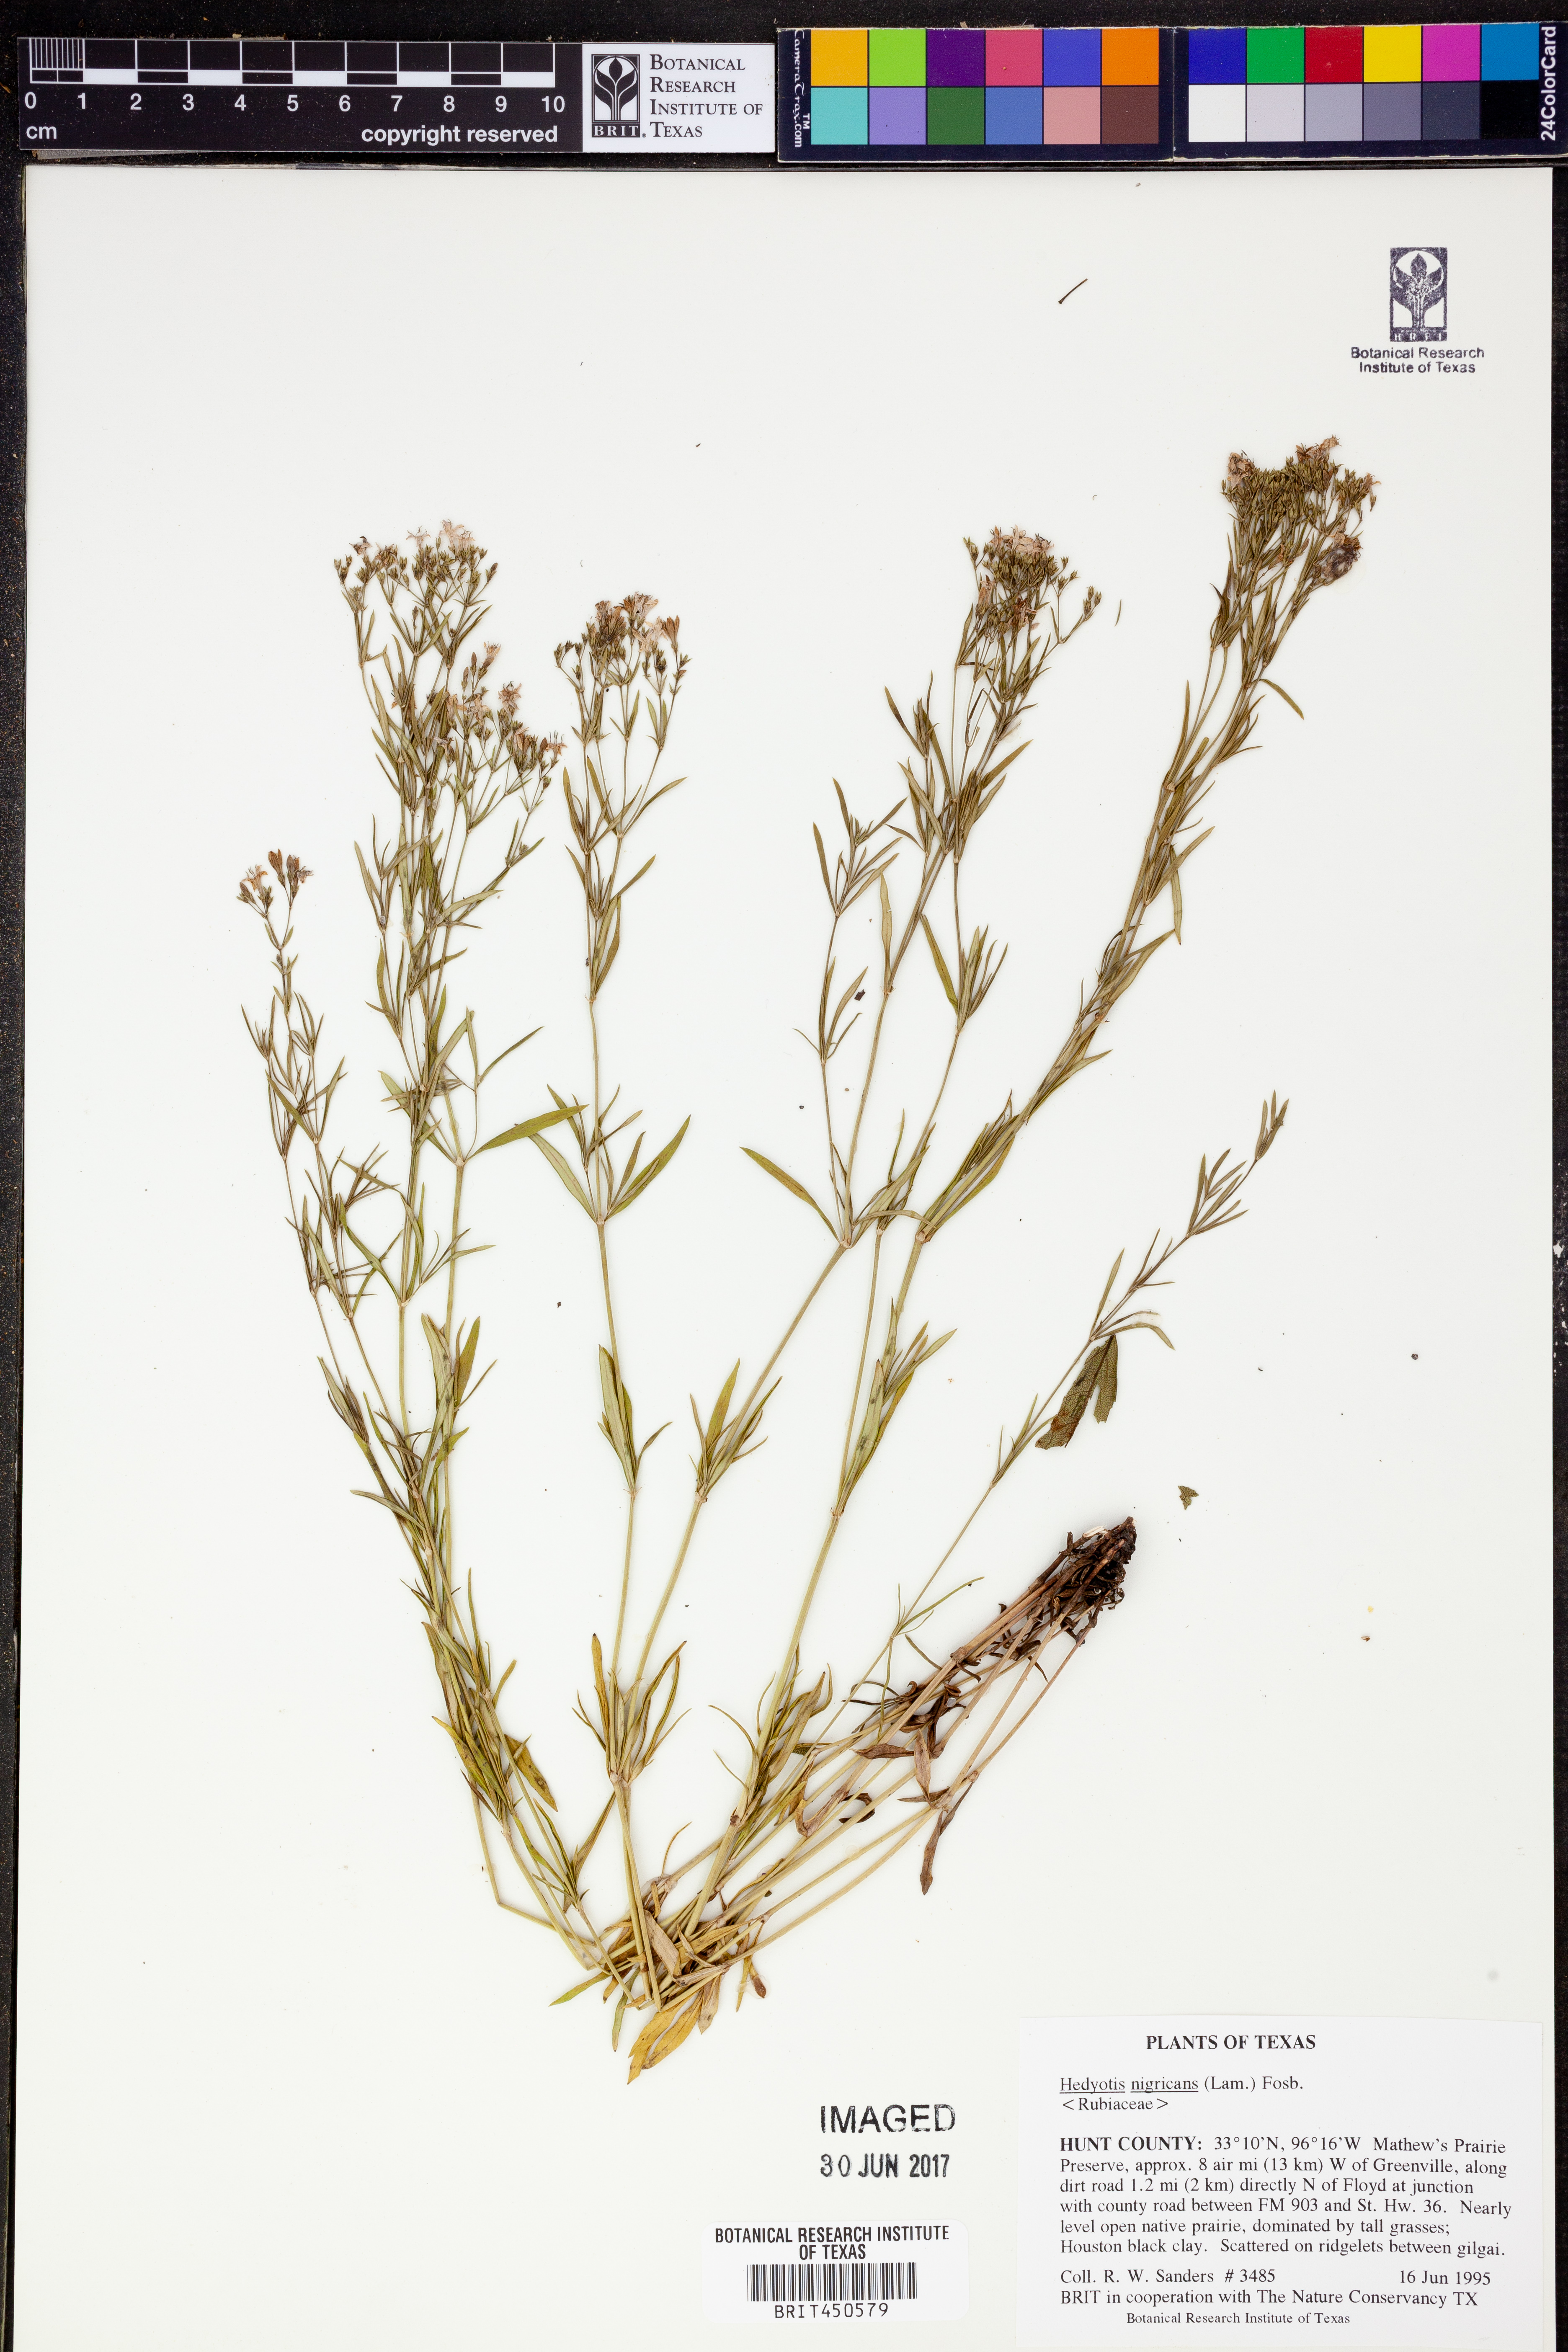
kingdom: Plantae
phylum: Tracheophyta
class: Magnoliopsida
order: Gentianales
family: Rubiaceae
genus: Stenaria
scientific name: Stenaria nigricans
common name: Diamondflowers
